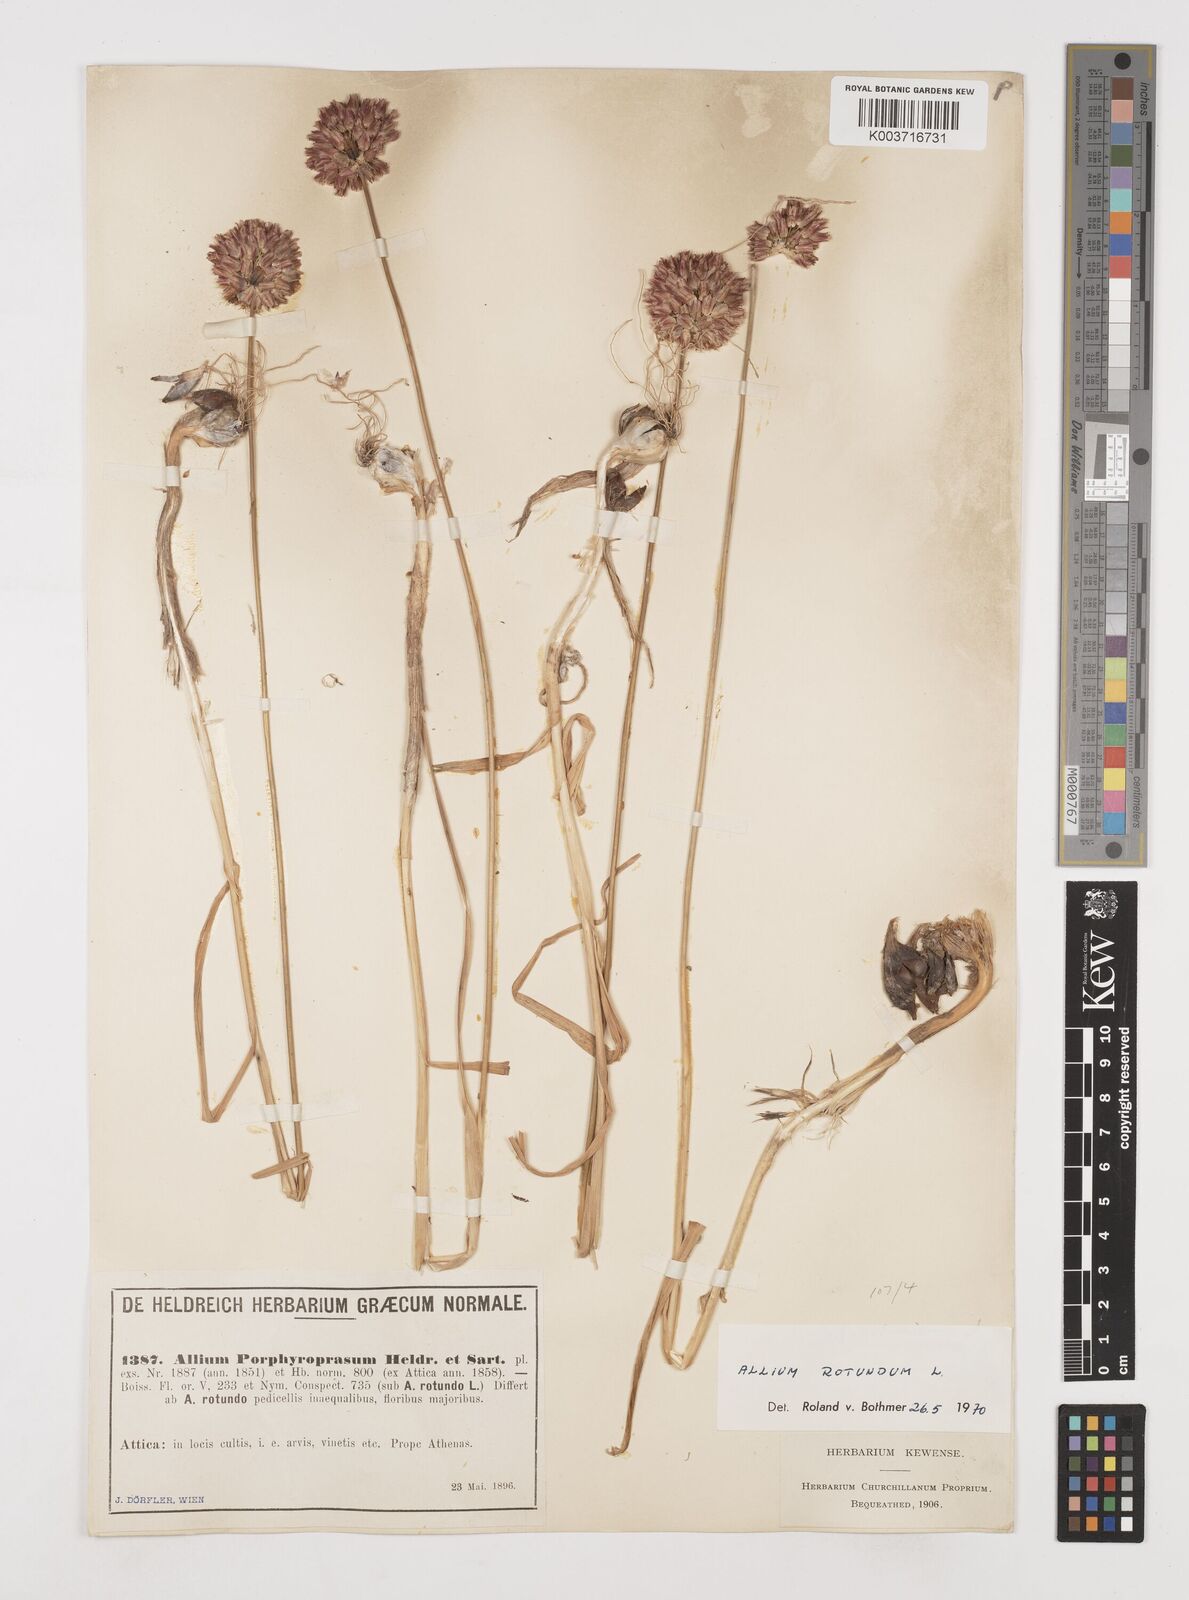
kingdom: Plantae
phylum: Tracheophyta
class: Liliopsida
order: Asparagales
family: Amaryllidaceae
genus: Allium
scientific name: Allium rotundum
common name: Sand leek
